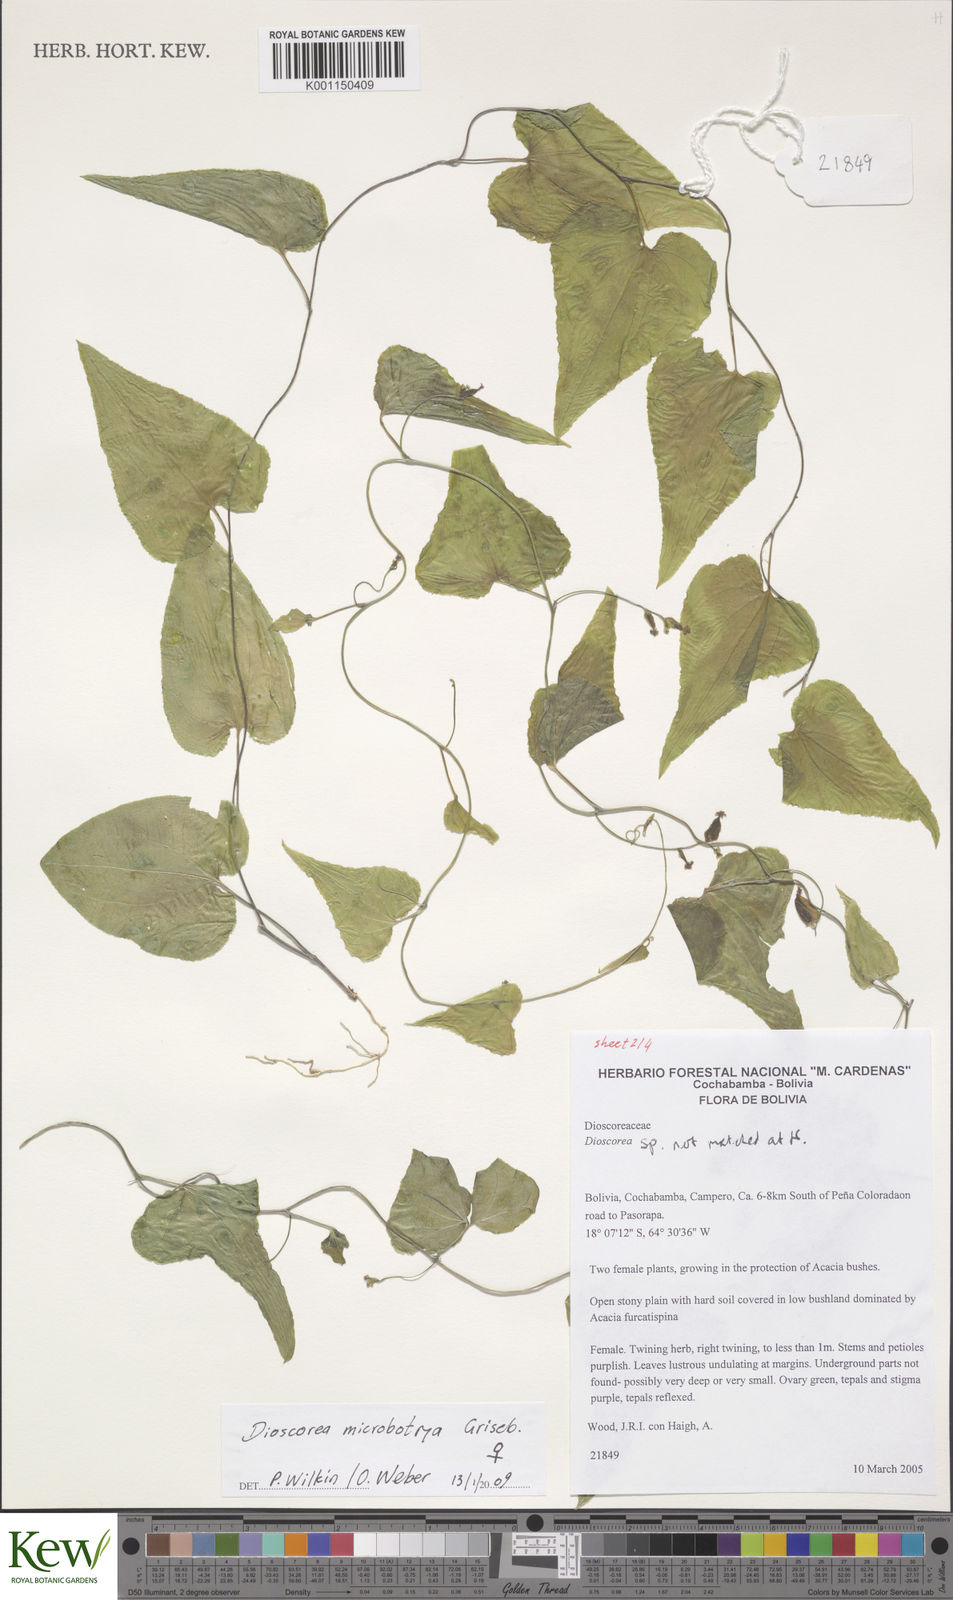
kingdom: Plantae
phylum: Tracheophyta
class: Liliopsida
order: Dioscoreales
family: Dioscoreaceae
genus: Dioscorea
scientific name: Dioscorea microbotrya
